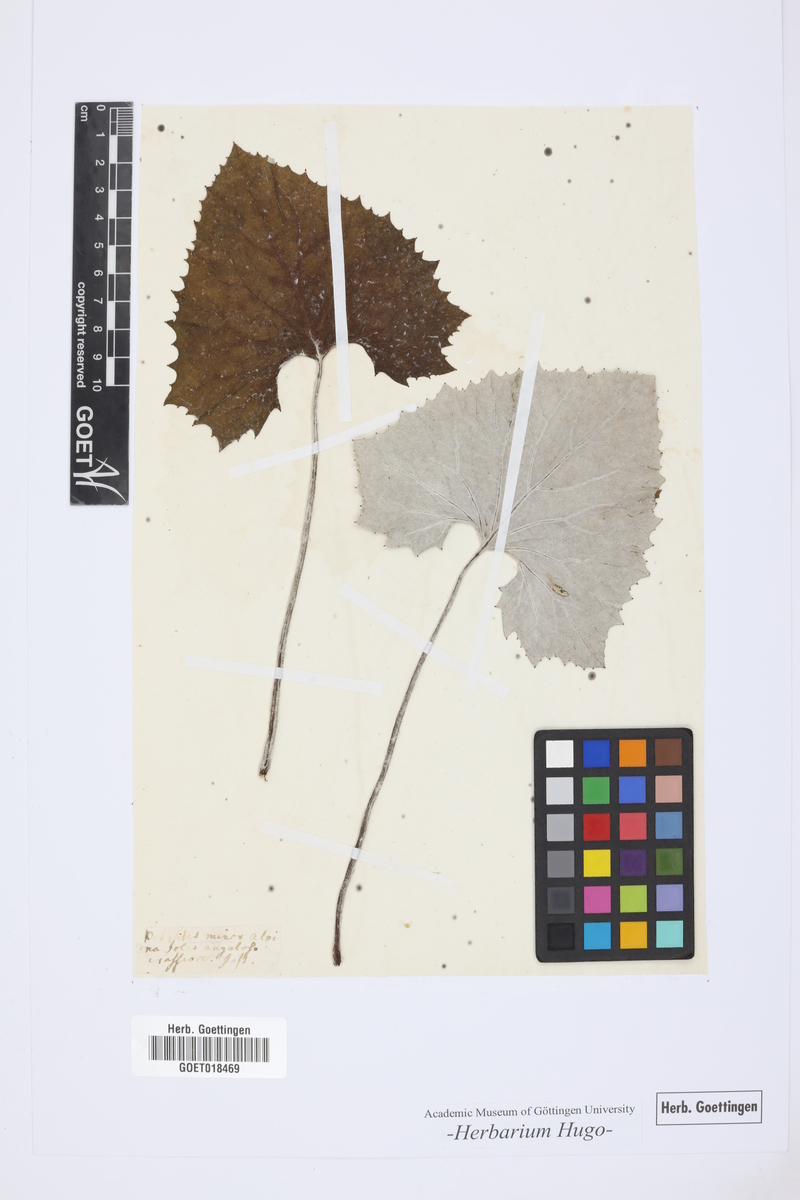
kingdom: Plantae
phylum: Tracheophyta
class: Magnoliopsida
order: Asterales
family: Asteraceae
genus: Petasites
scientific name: Petasites
